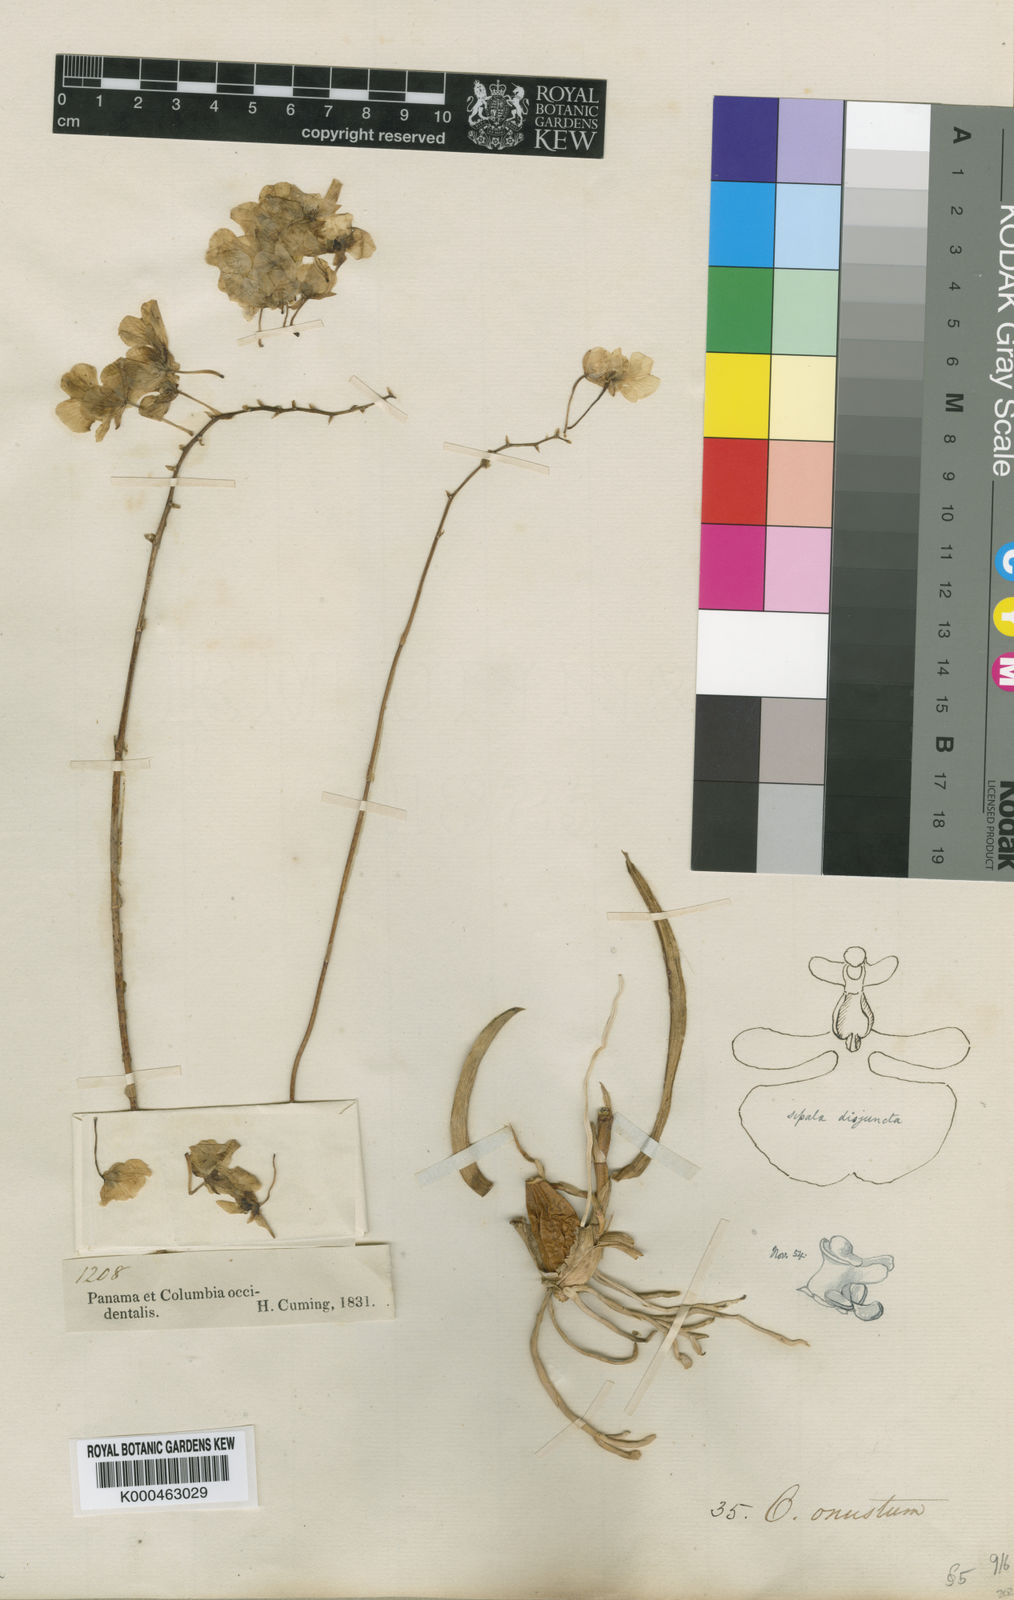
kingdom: Plantae
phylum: Tracheophyta
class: Liliopsida
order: Asparagales
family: Orchidaceae
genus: Zelenkoa
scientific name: Zelenkoa onusta
